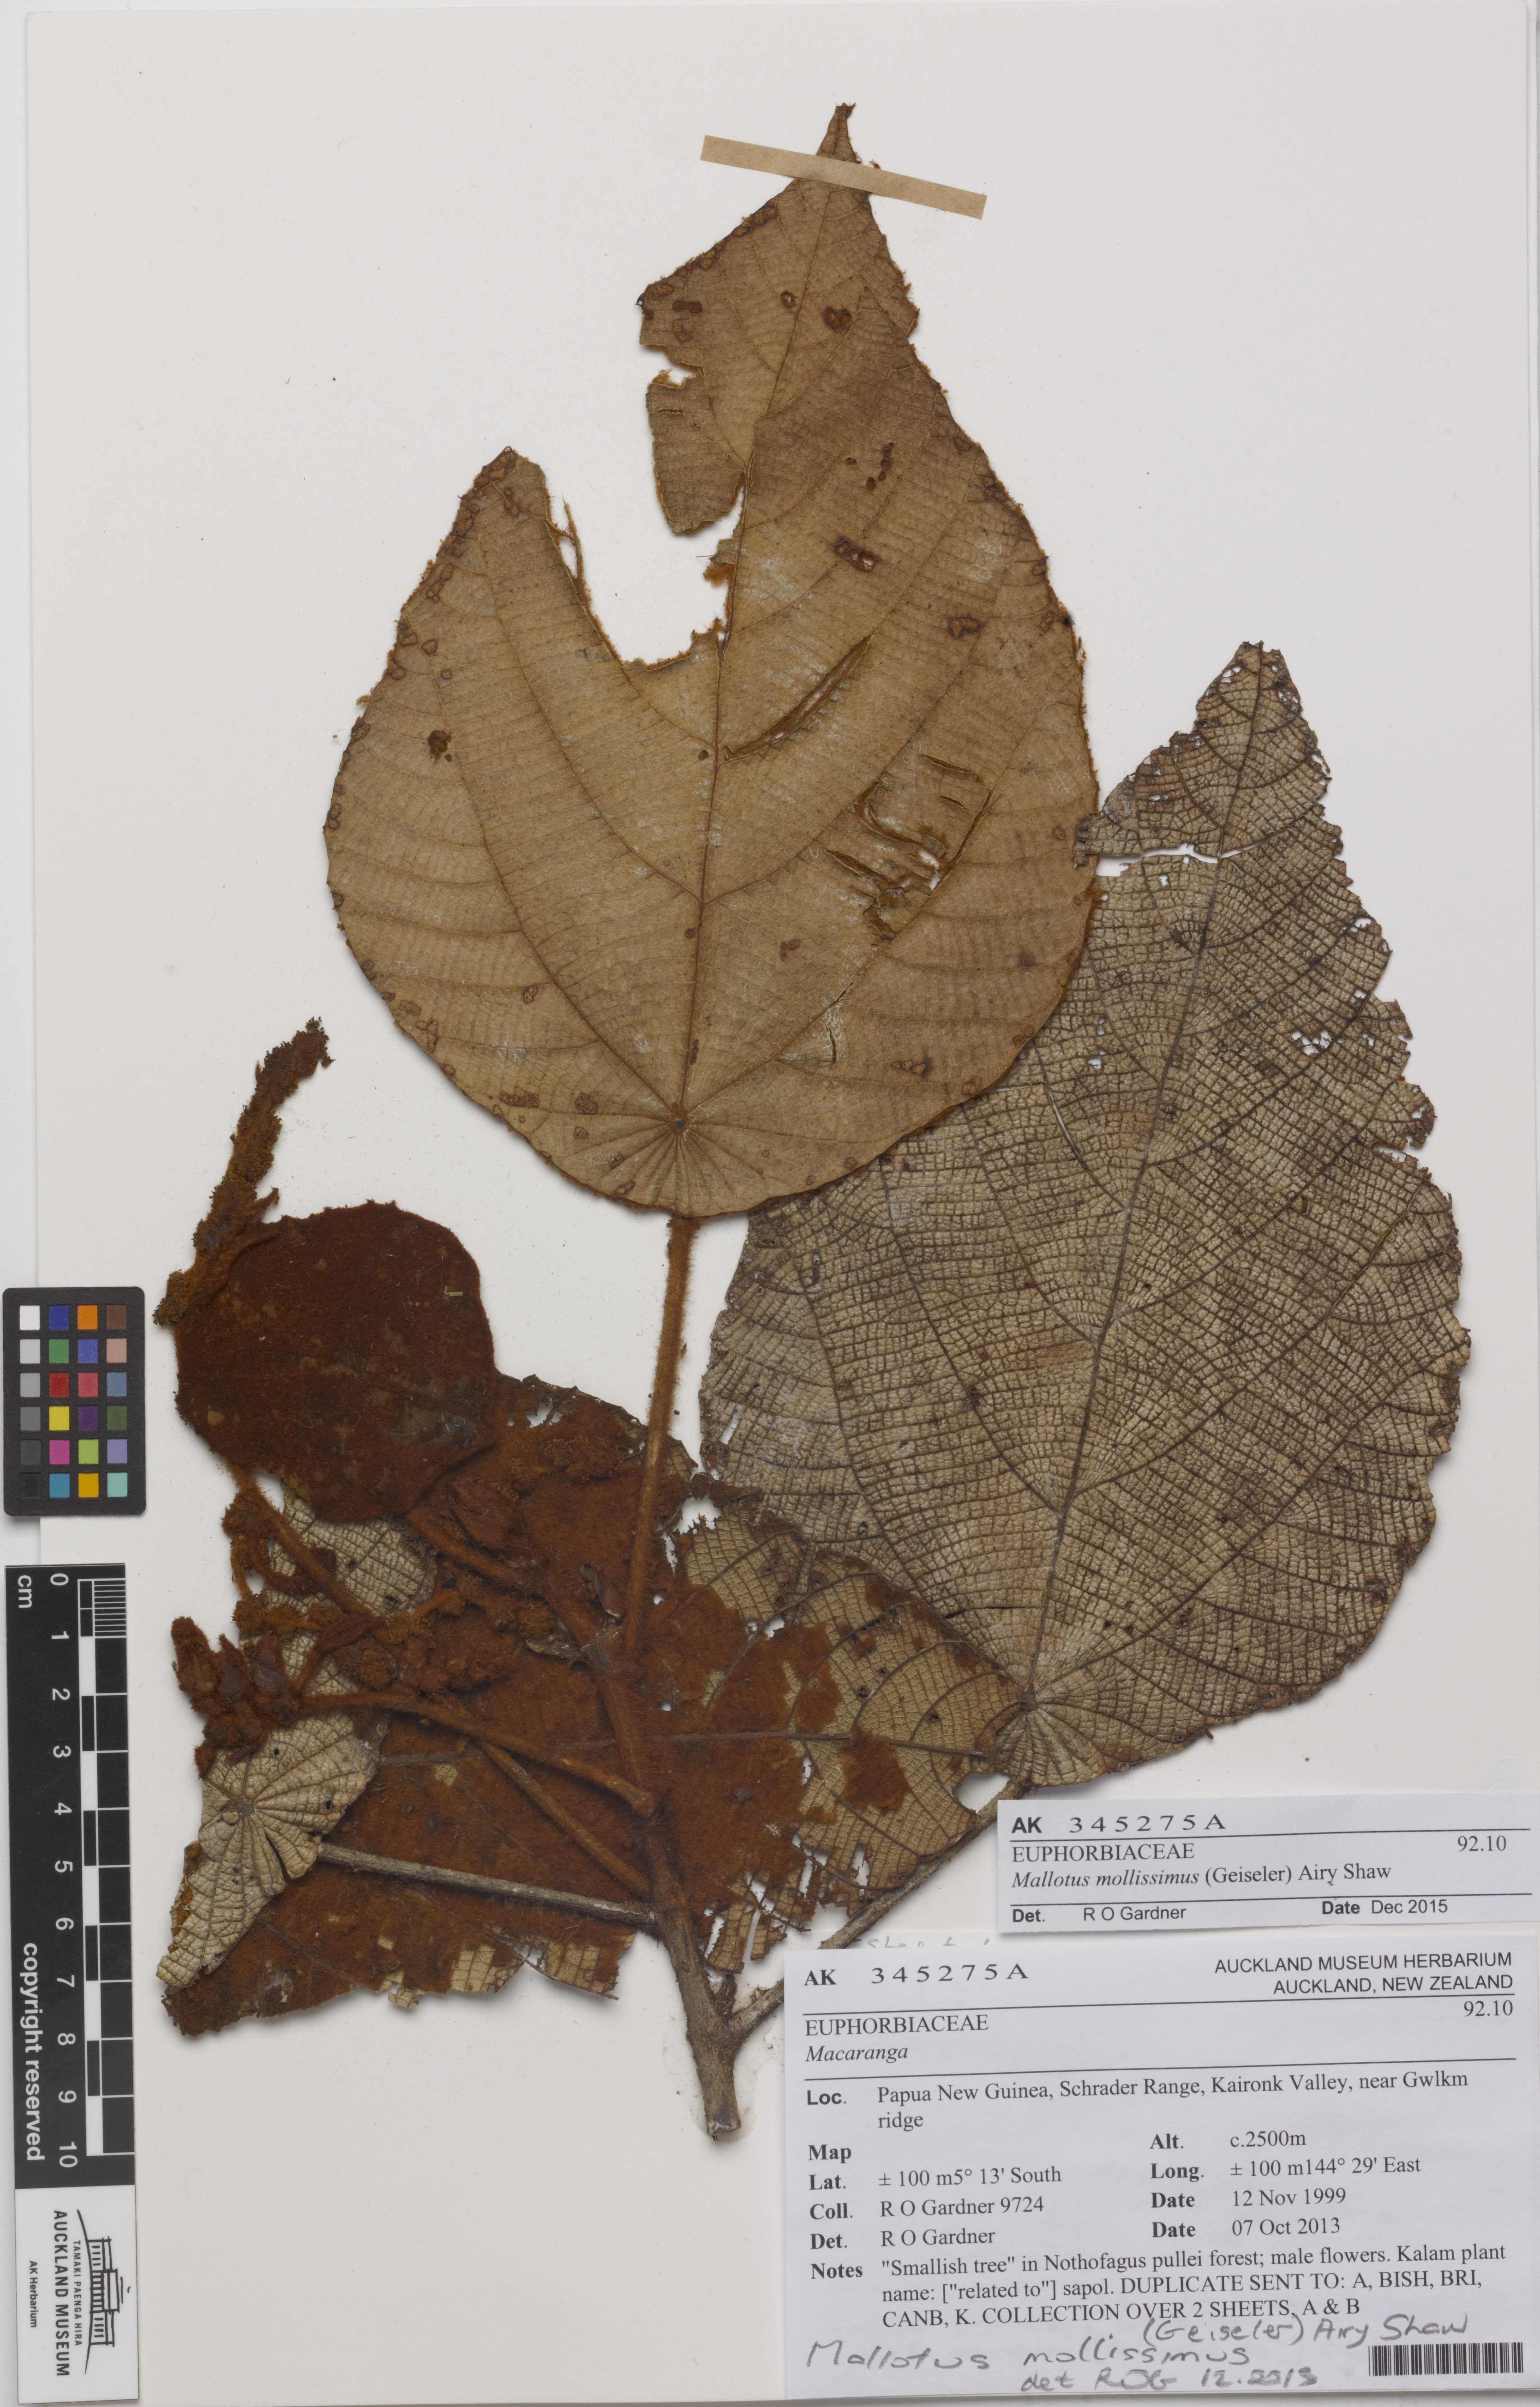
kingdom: Plantae
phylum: Tracheophyta
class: Magnoliopsida
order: Malpighiales
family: Euphorbiaceae
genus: Macaranga
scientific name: Macaranga carrii
